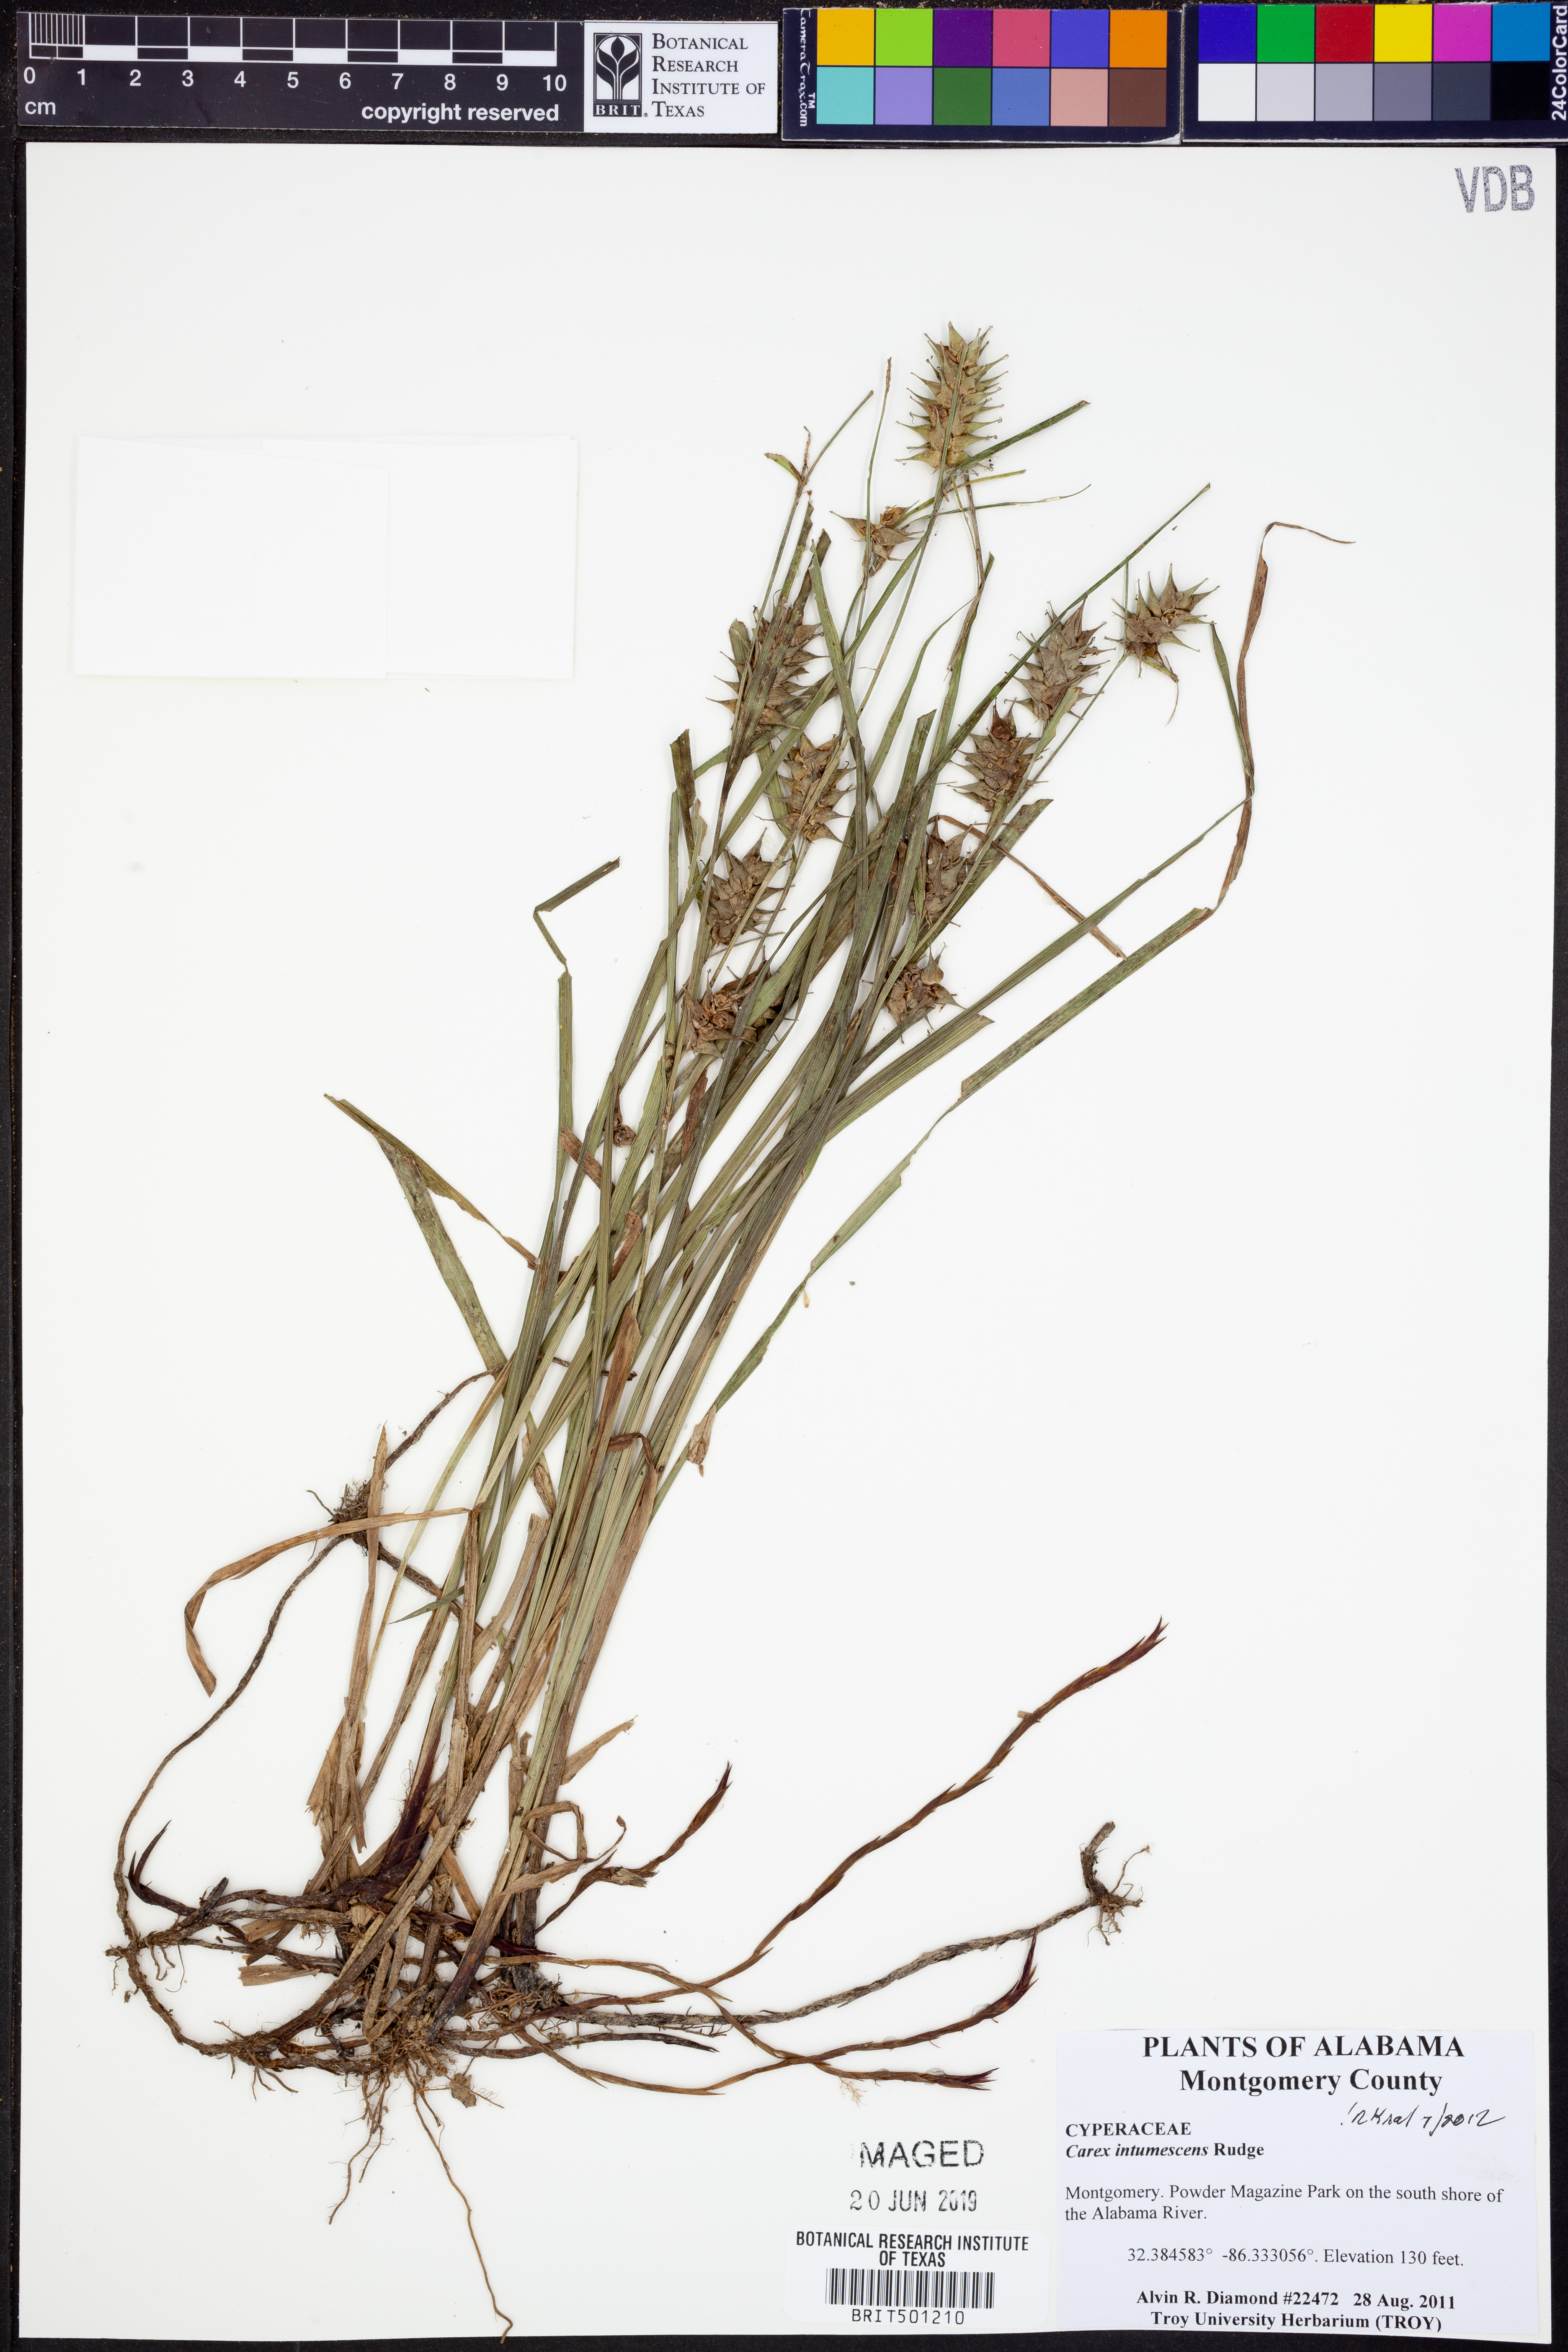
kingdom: Plantae
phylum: Tracheophyta
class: Liliopsida
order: Poales
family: Cyperaceae
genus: Carex
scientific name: Carex intumescens
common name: Greater bladder sedge
